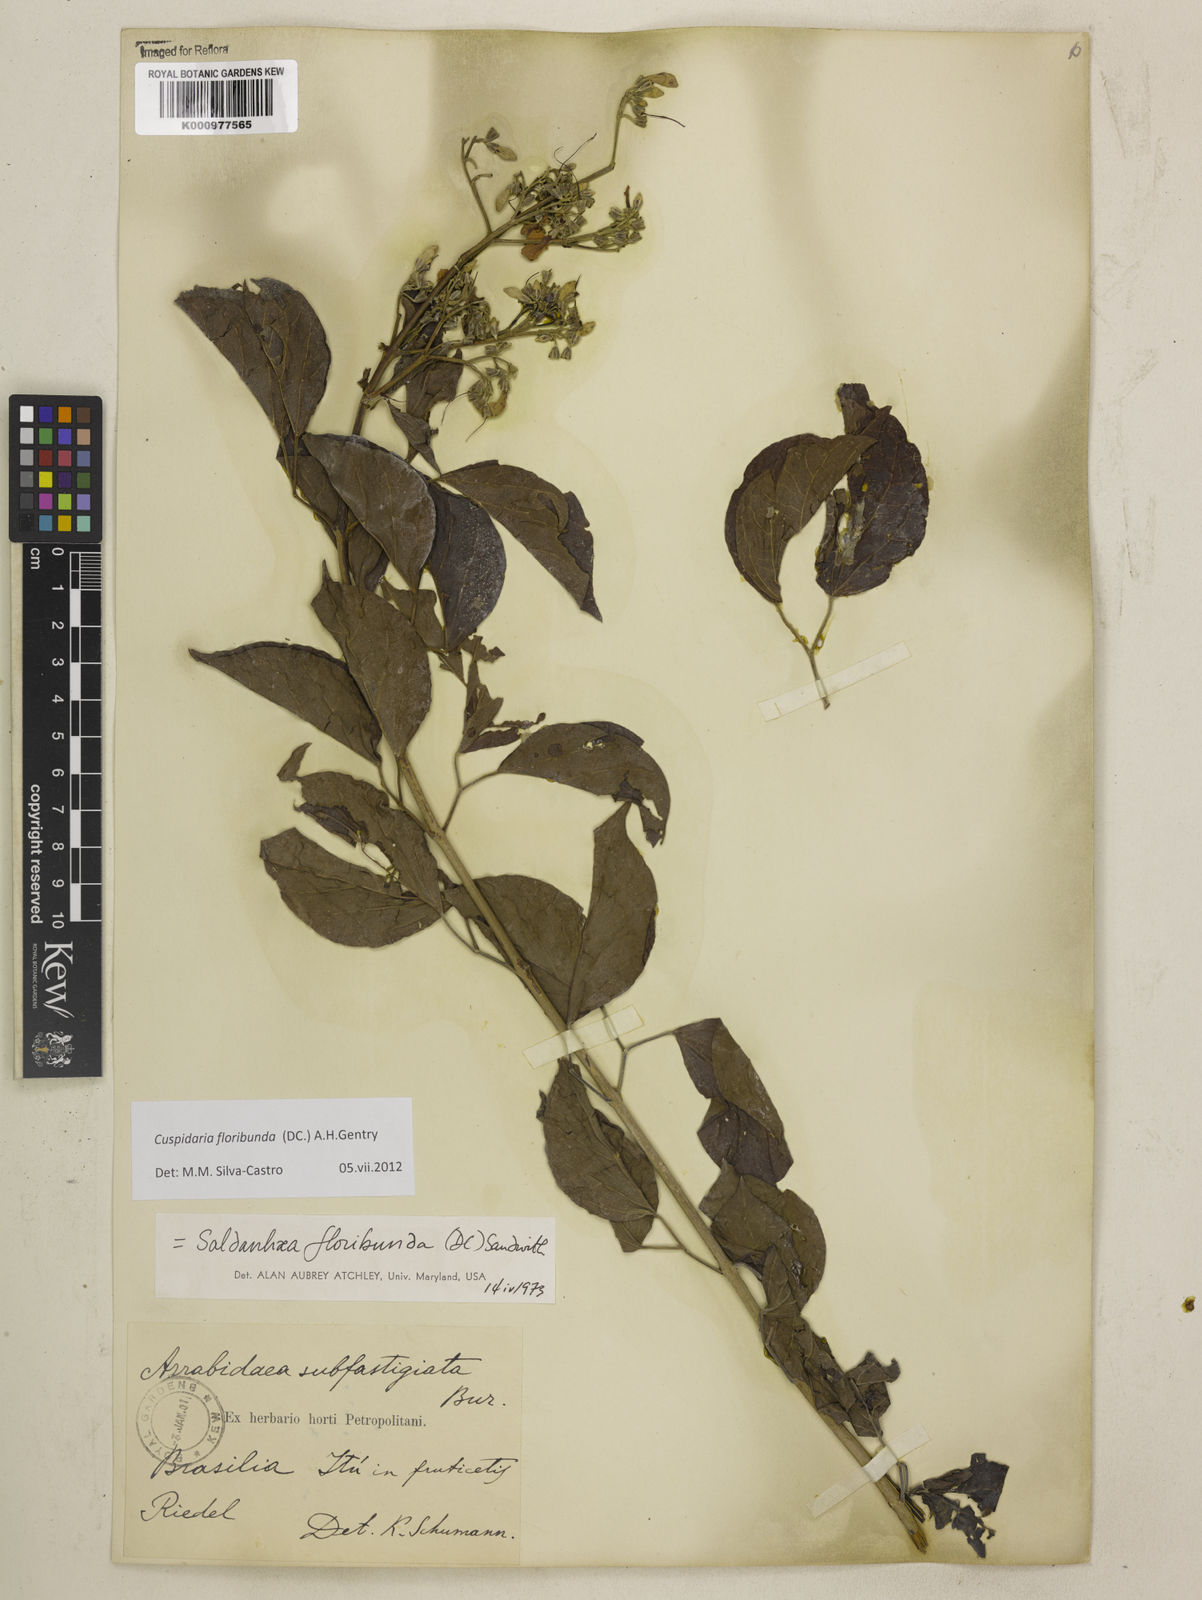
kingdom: Plantae
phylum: Tracheophyta
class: Magnoliopsida
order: Lamiales
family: Bignoniaceae
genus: Cuspidaria
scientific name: Cuspidaria floribunda
